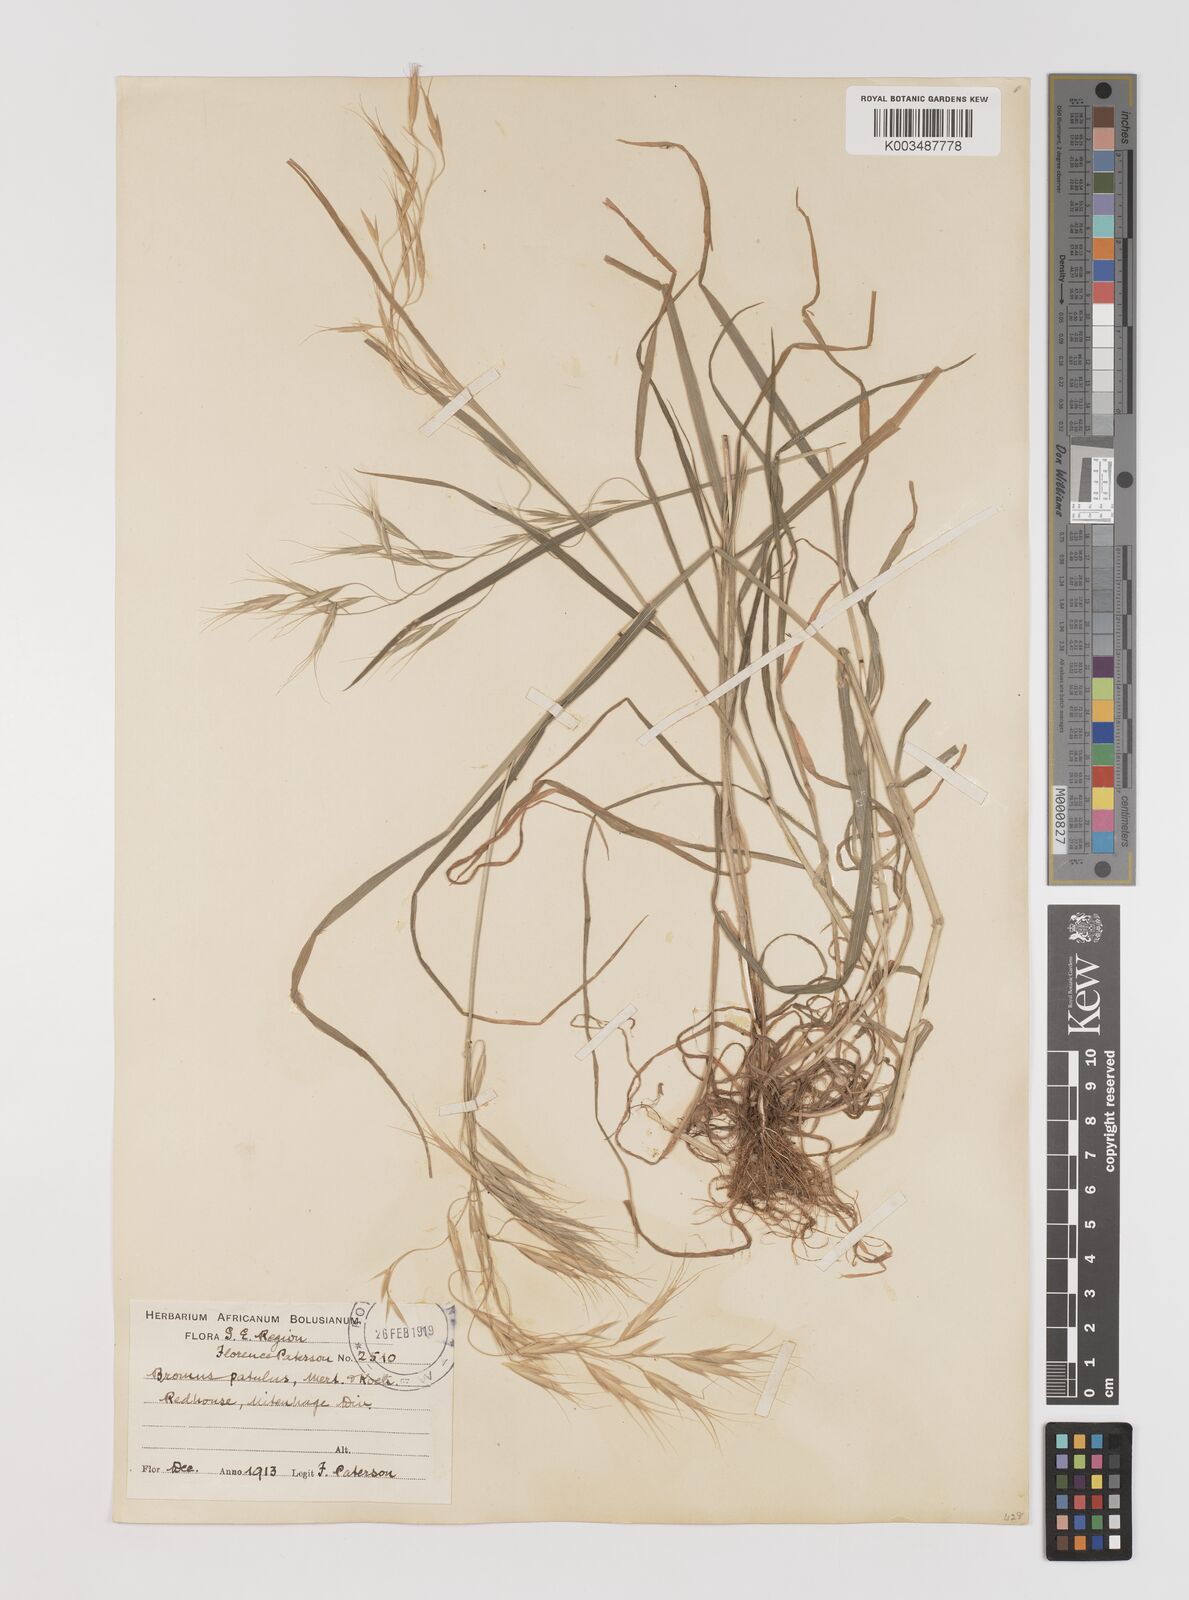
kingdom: Plantae
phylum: Tracheophyta
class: Liliopsida
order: Poales
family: Poaceae
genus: Bromus
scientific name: Bromus pectinatus
